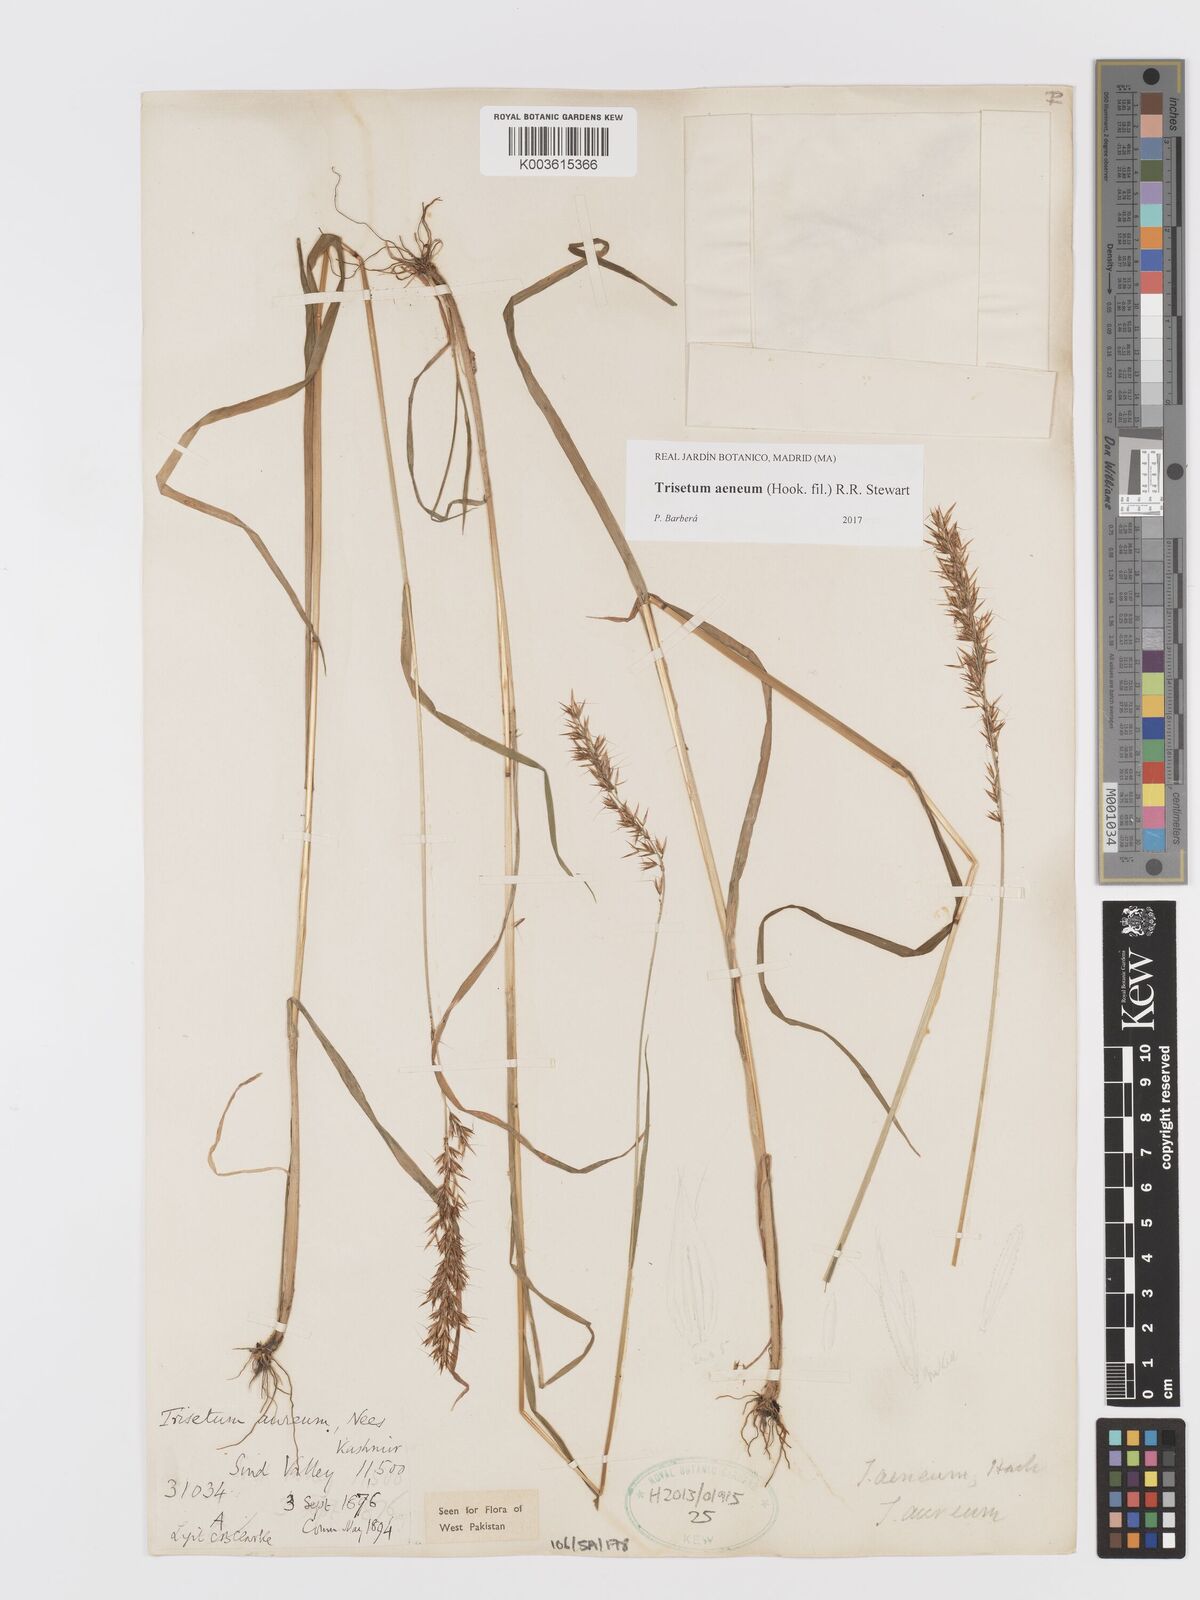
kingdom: Plantae
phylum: Tracheophyta
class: Liliopsida
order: Poales
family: Poaceae
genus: Sibirotrisetum
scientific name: Sibirotrisetum aeneum
